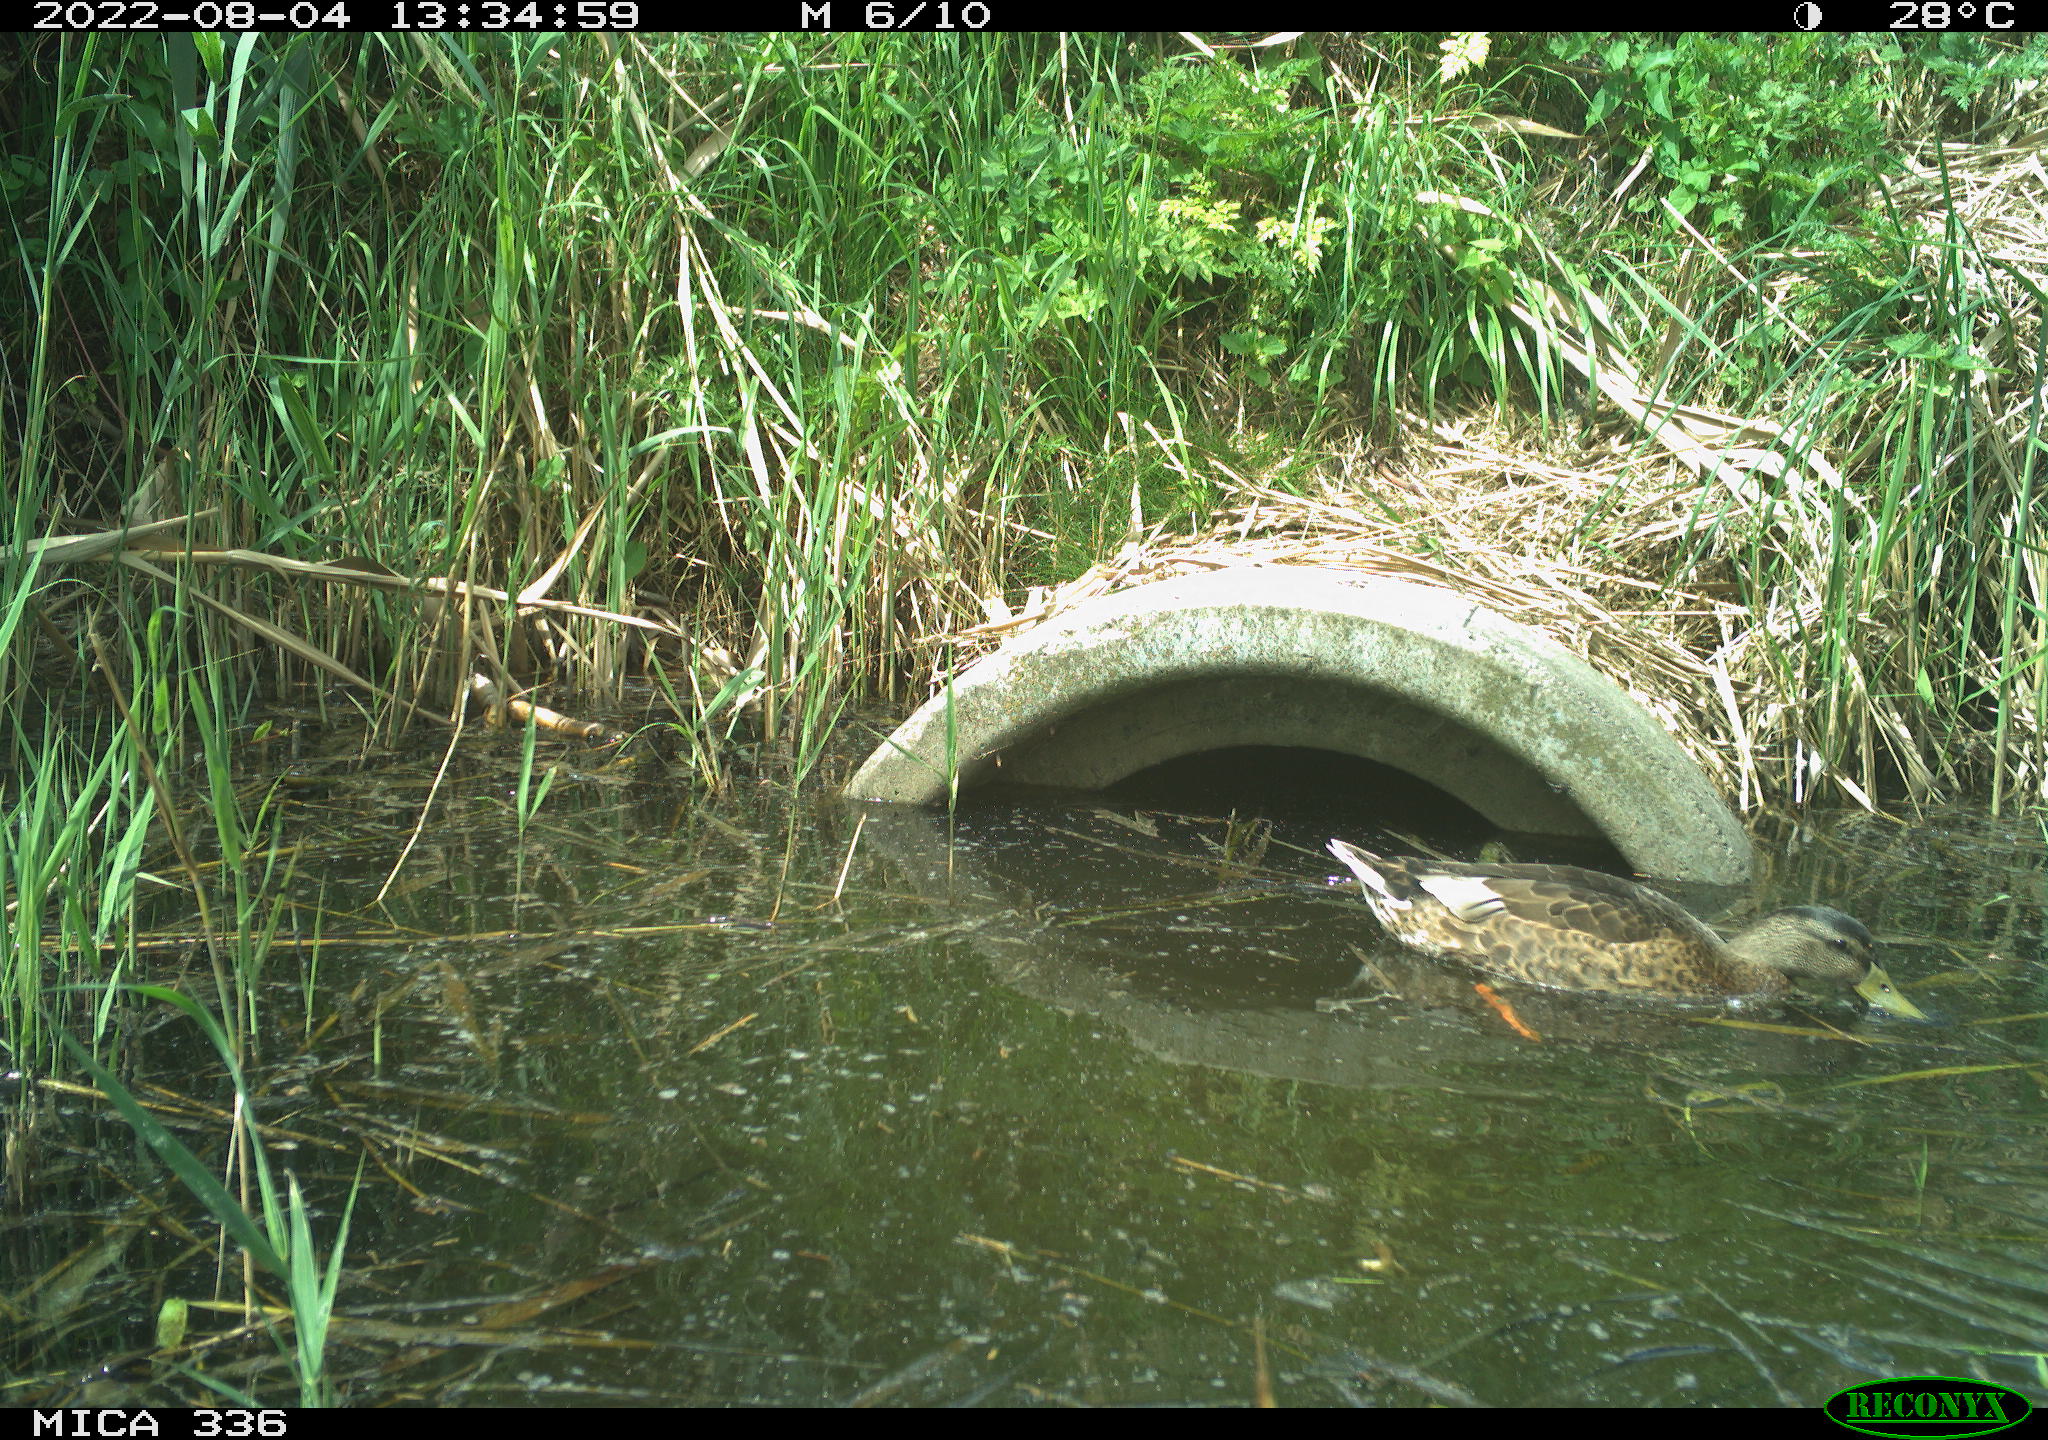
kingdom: Animalia
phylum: Chordata
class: Aves
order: Anseriformes
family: Anatidae
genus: Anas
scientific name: Anas platyrhynchos
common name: Mallard
